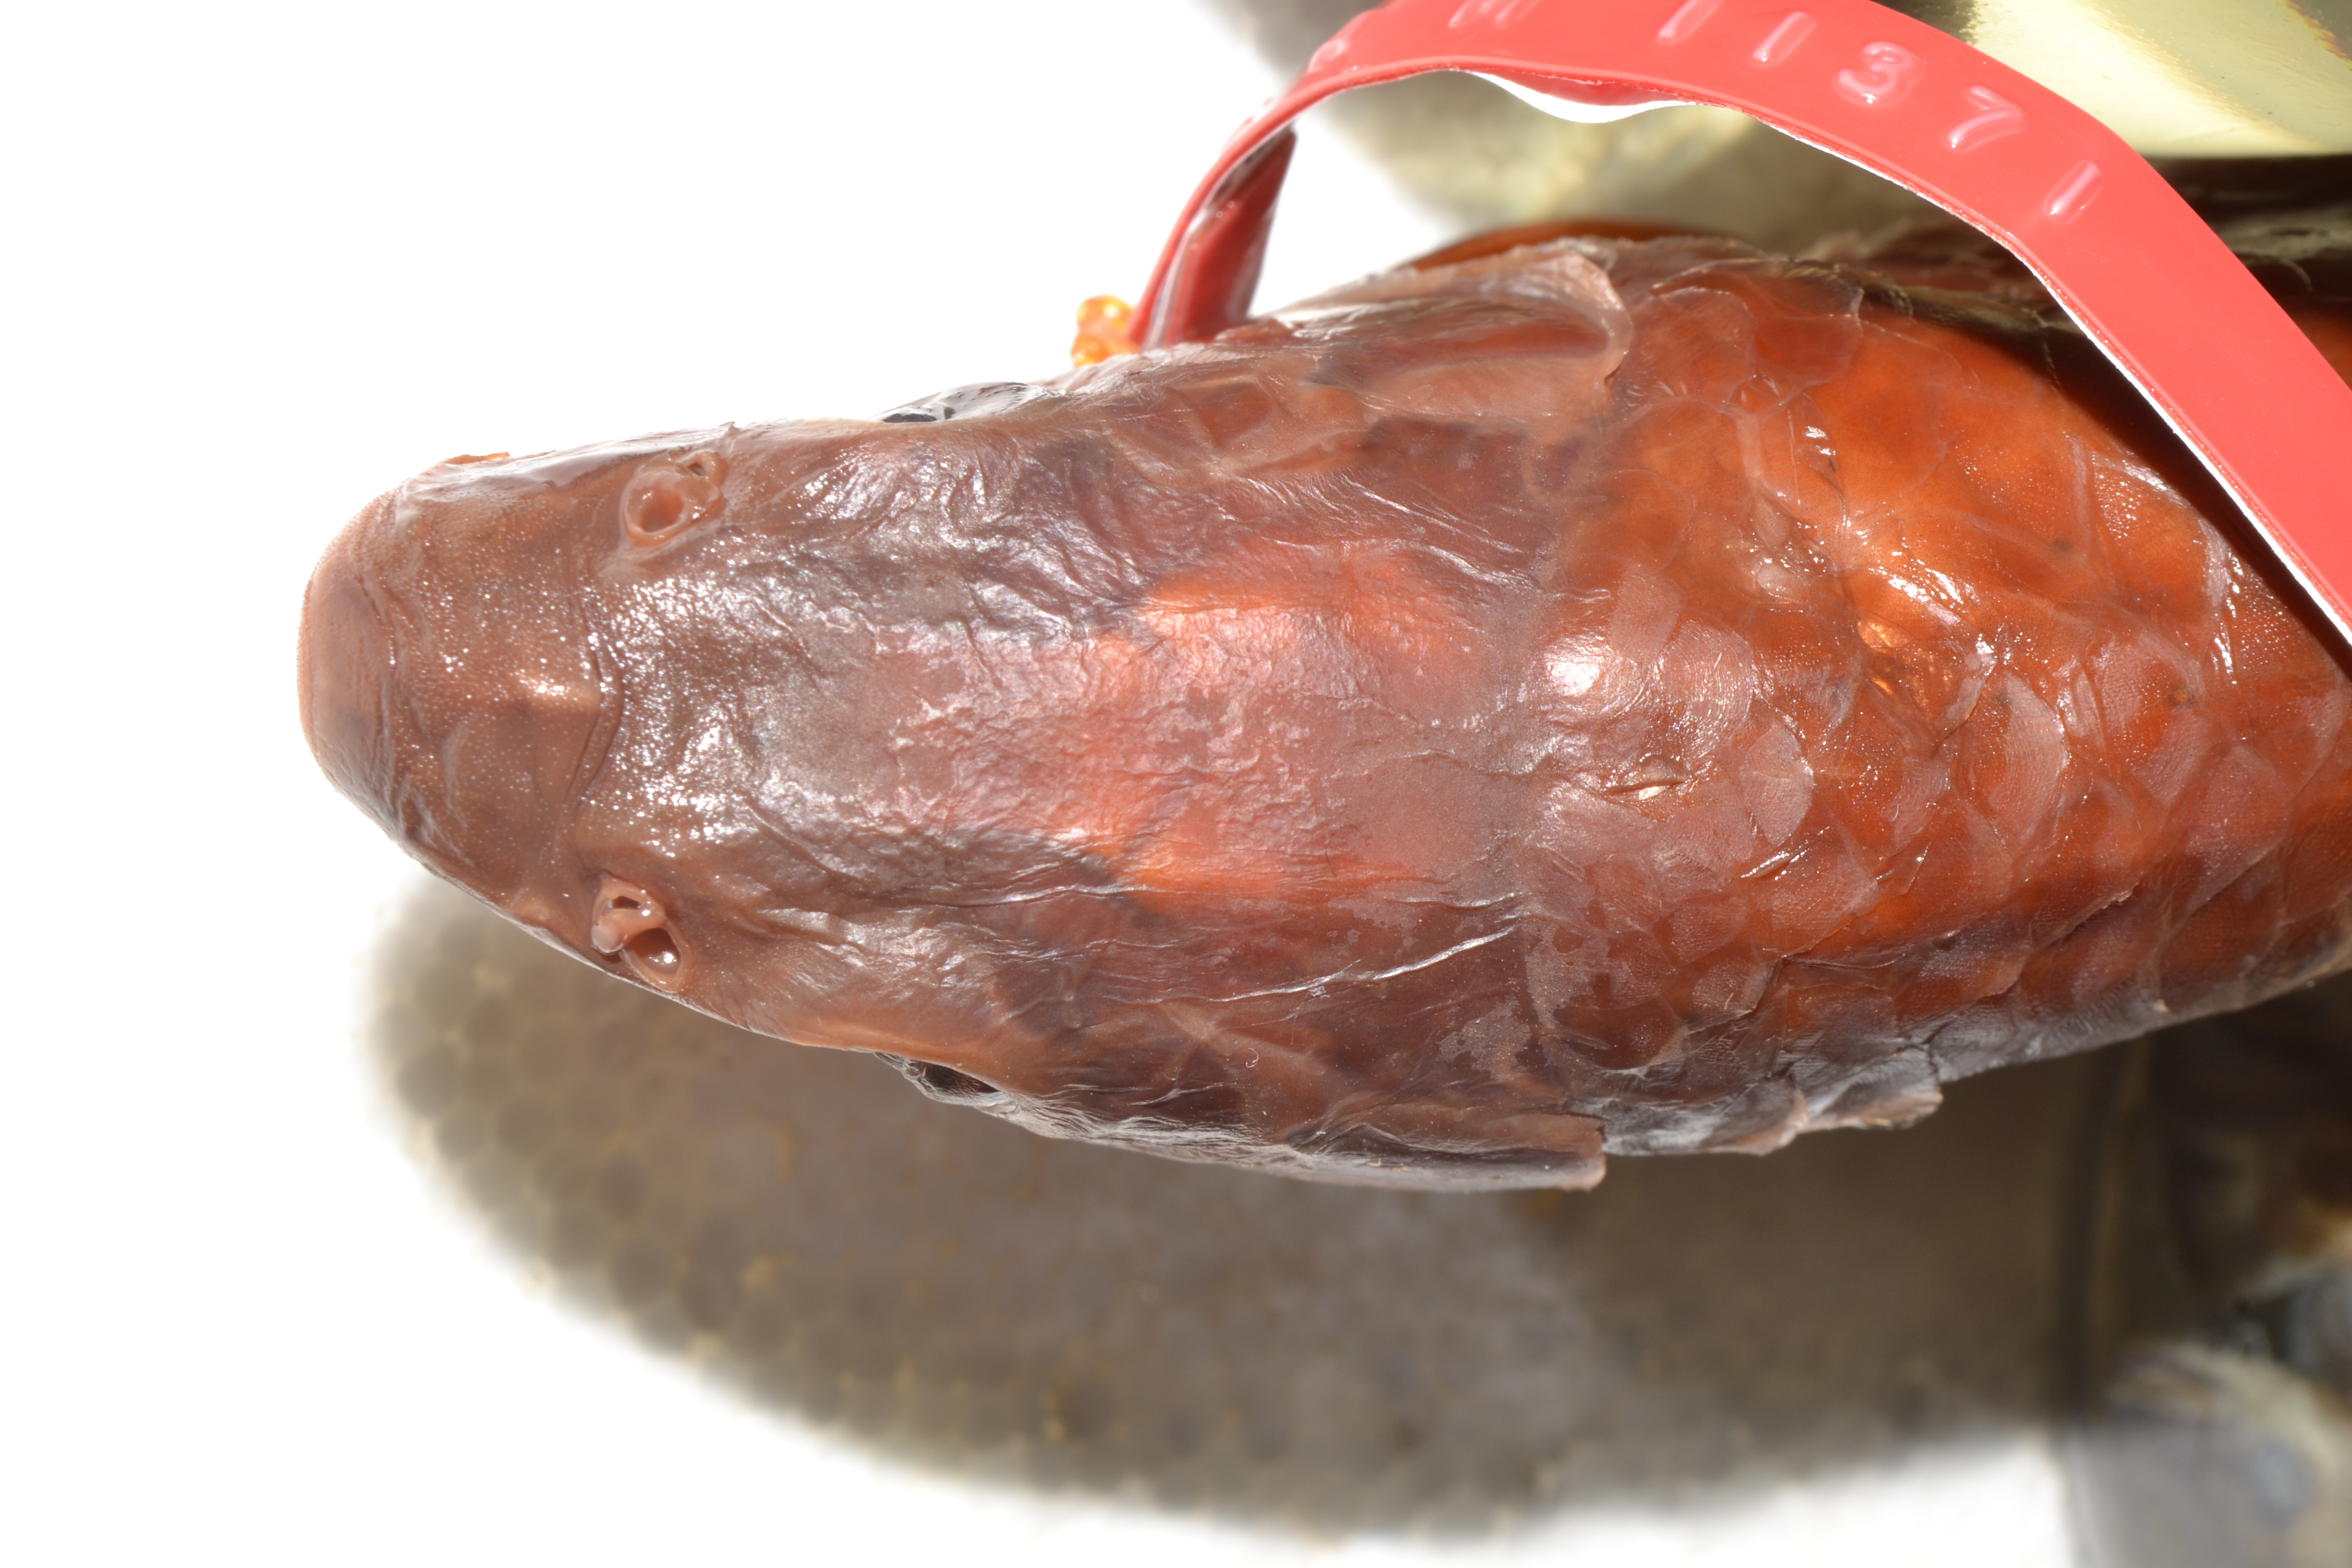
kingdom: Animalia
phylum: Chordata
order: Cypriniformes
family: Cyprinidae
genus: Labeobarbus
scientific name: Labeobarbus natalensis
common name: Scaly
